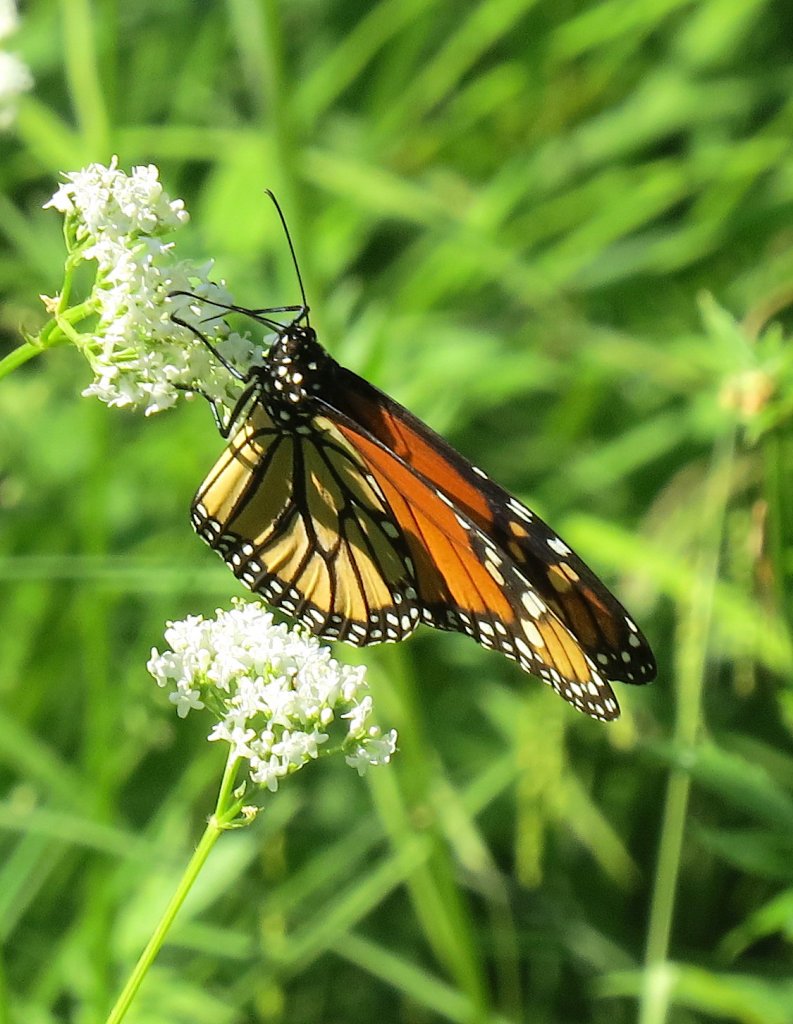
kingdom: Animalia
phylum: Arthropoda
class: Insecta
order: Lepidoptera
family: Nymphalidae
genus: Danaus
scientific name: Danaus plexippus
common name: Monarch
